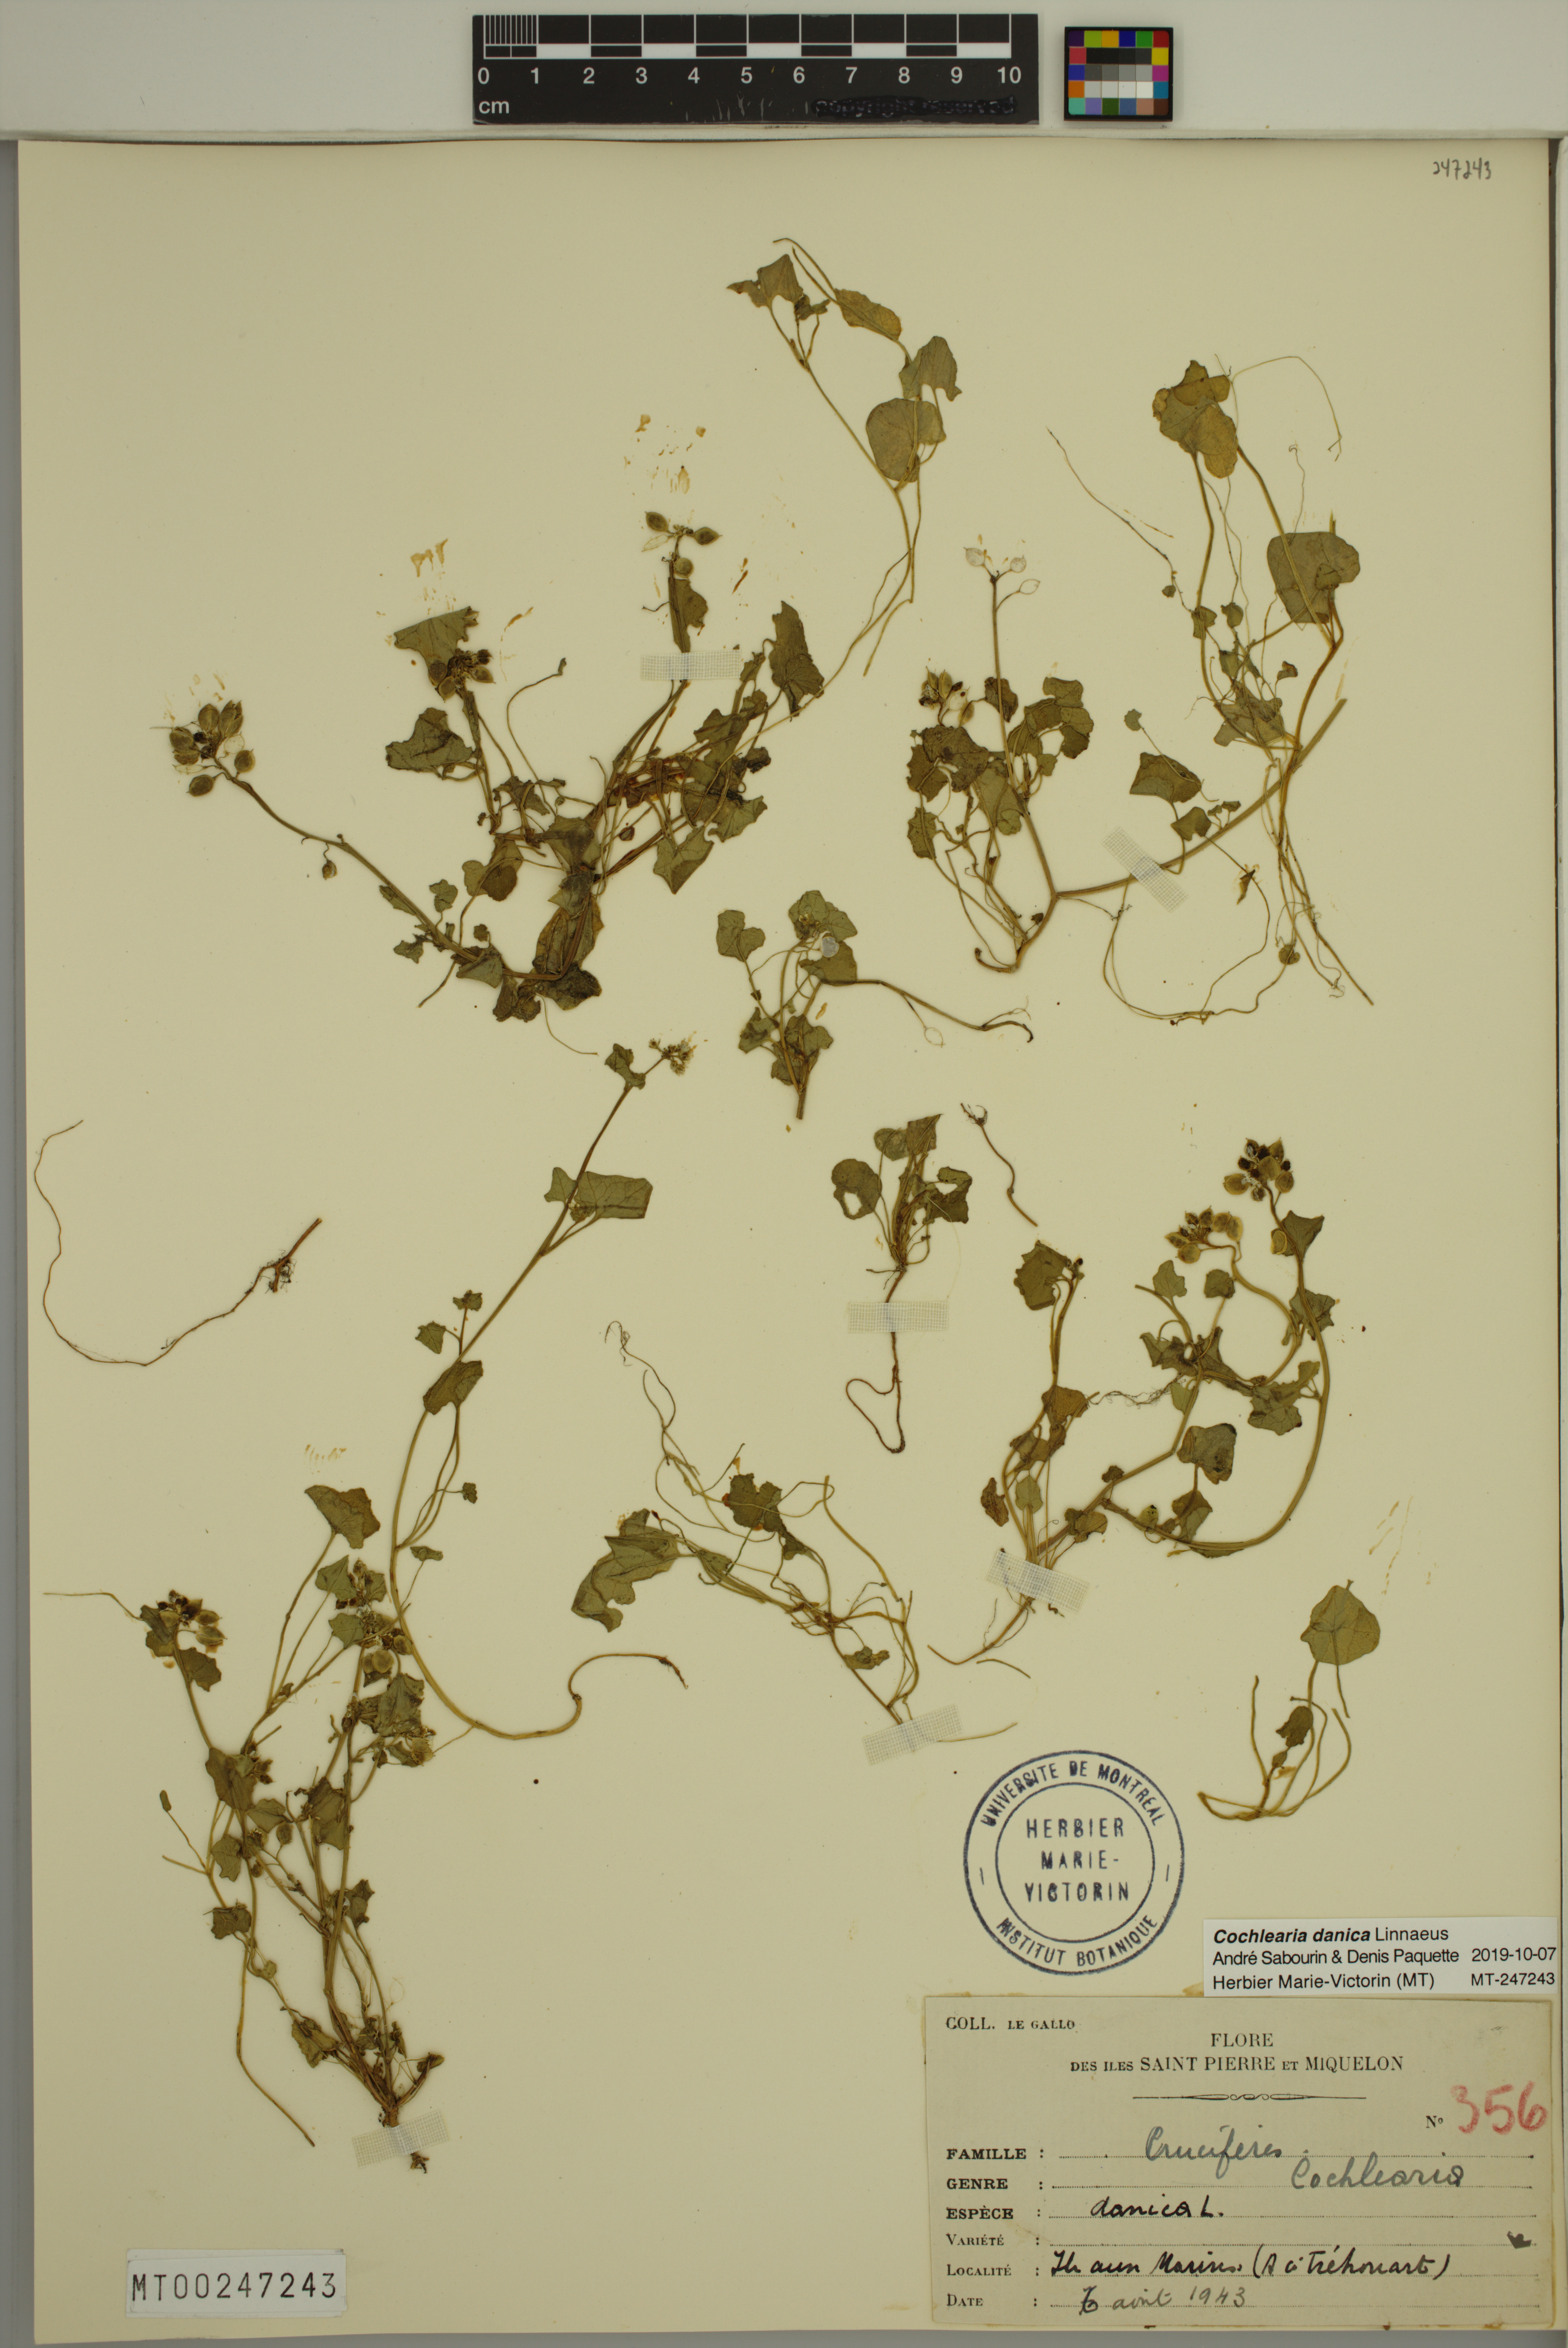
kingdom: Plantae
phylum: Tracheophyta
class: Magnoliopsida
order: Brassicales
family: Brassicaceae
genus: Cochlearia
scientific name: Cochlearia tridactylites
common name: Limestone scurvygrass
